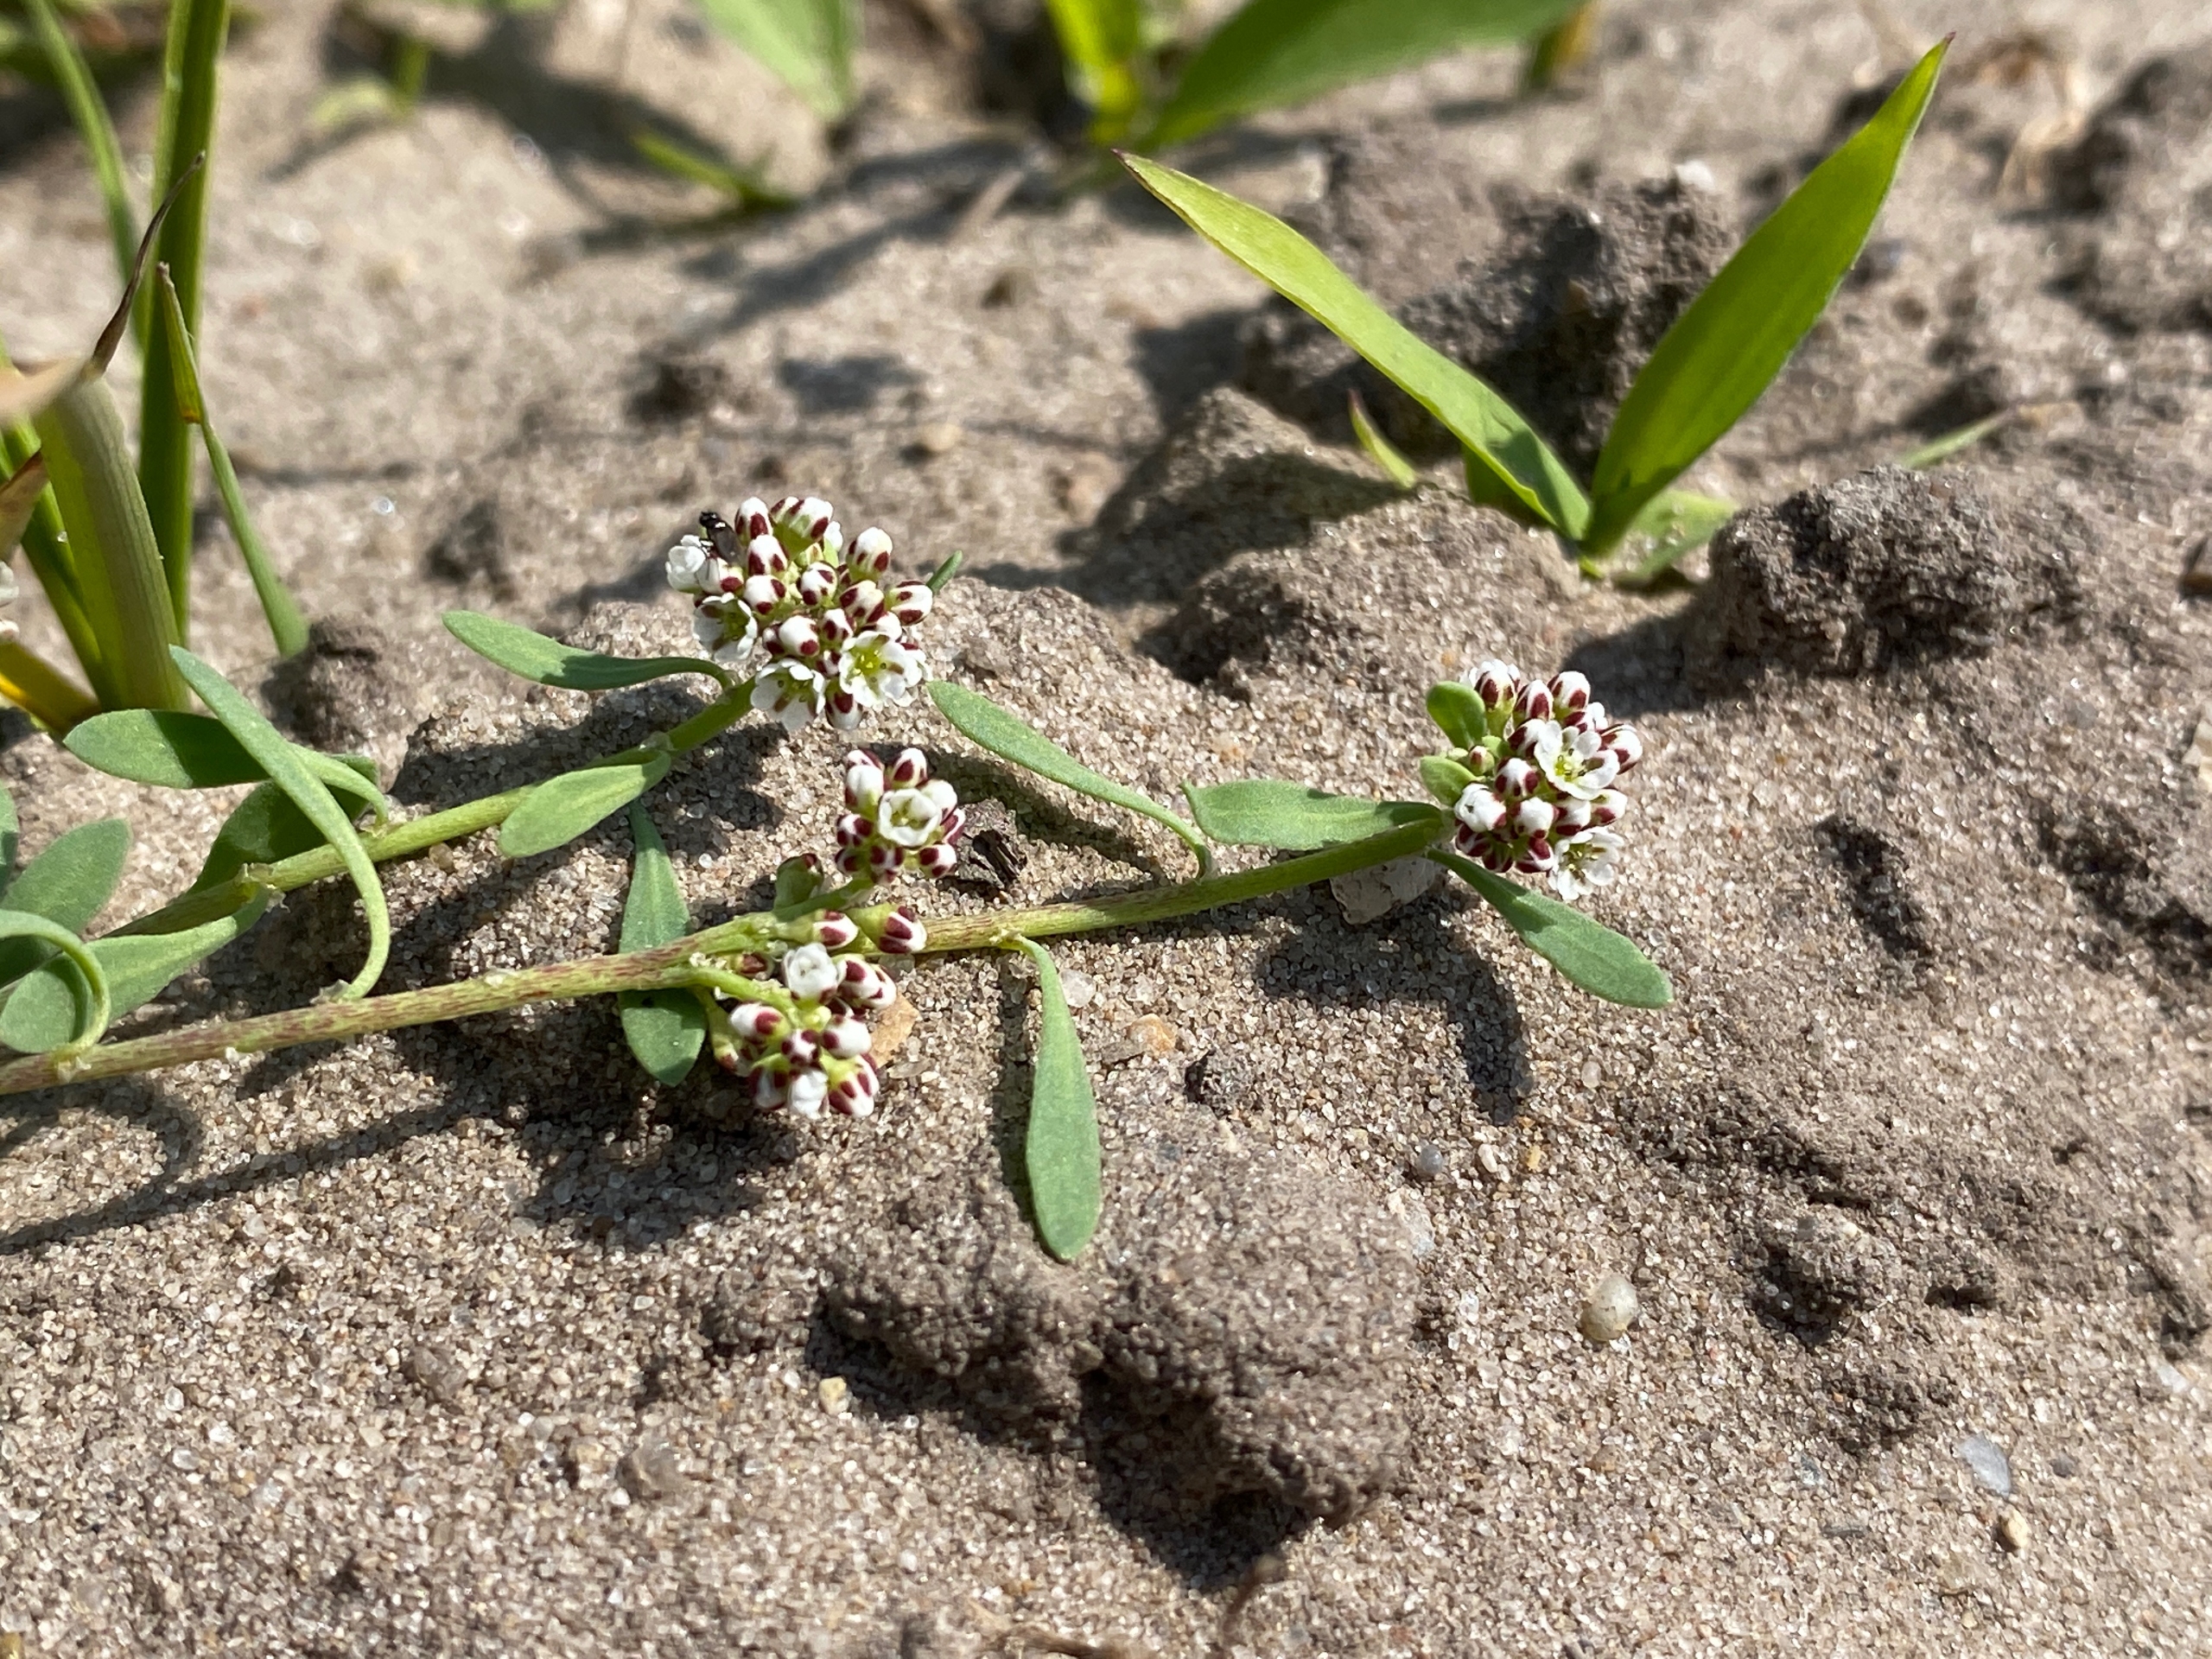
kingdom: Plantae
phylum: Tracheophyta
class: Magnoliopsida
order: Caryophyllales
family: Caryophyllaceae
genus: Corrigiola
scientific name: Corrigiola litoralis
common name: Skorem
